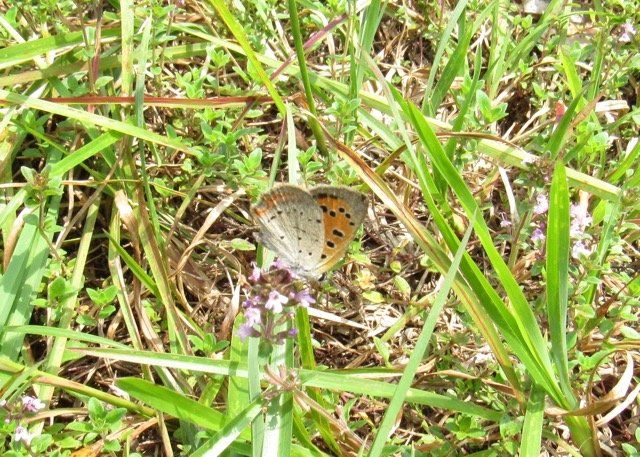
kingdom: Animalia
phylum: Arthropoda
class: Insecta
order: Lepidoptera
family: Lycaenidae
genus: Lycaena
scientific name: Lycaena phlaeas
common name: American Copper
